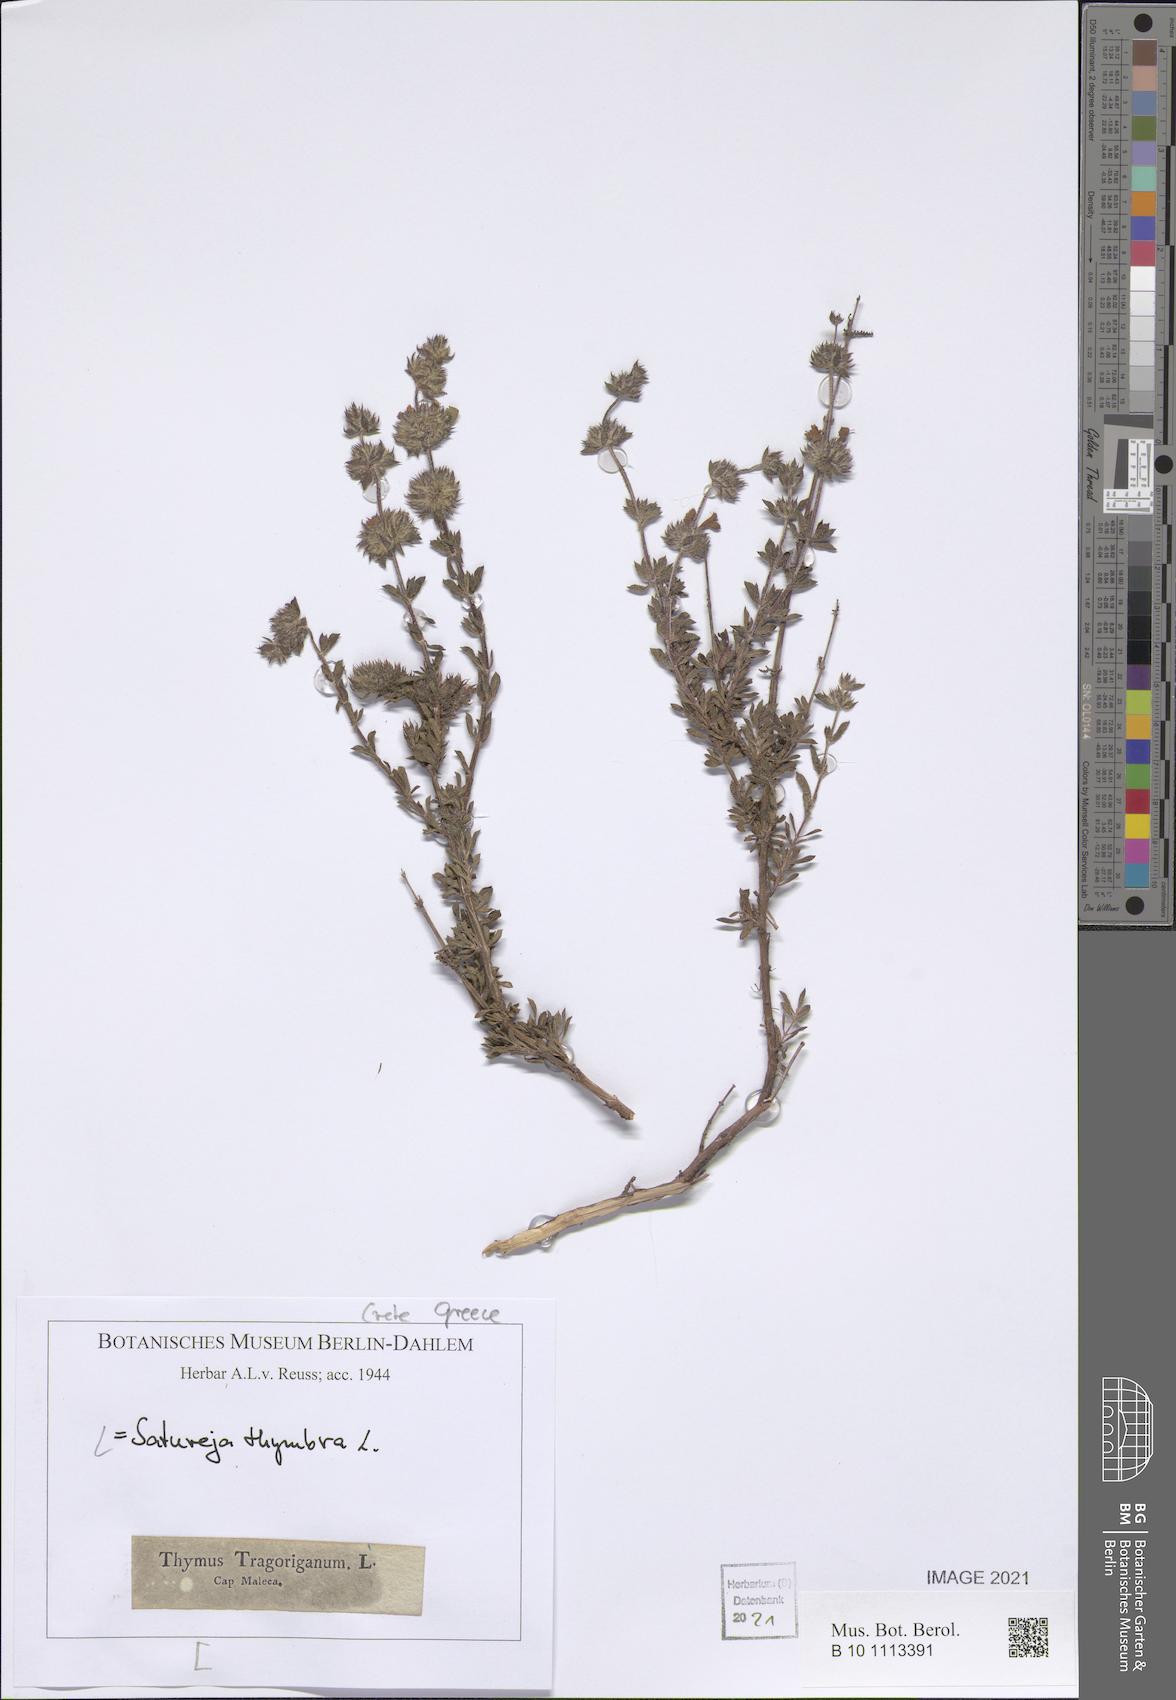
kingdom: Plantae
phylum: Tracheophyta
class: Magnoliopsida
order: Lamiales
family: Lamiaceae
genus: Satureja
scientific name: Satureja thymbra
